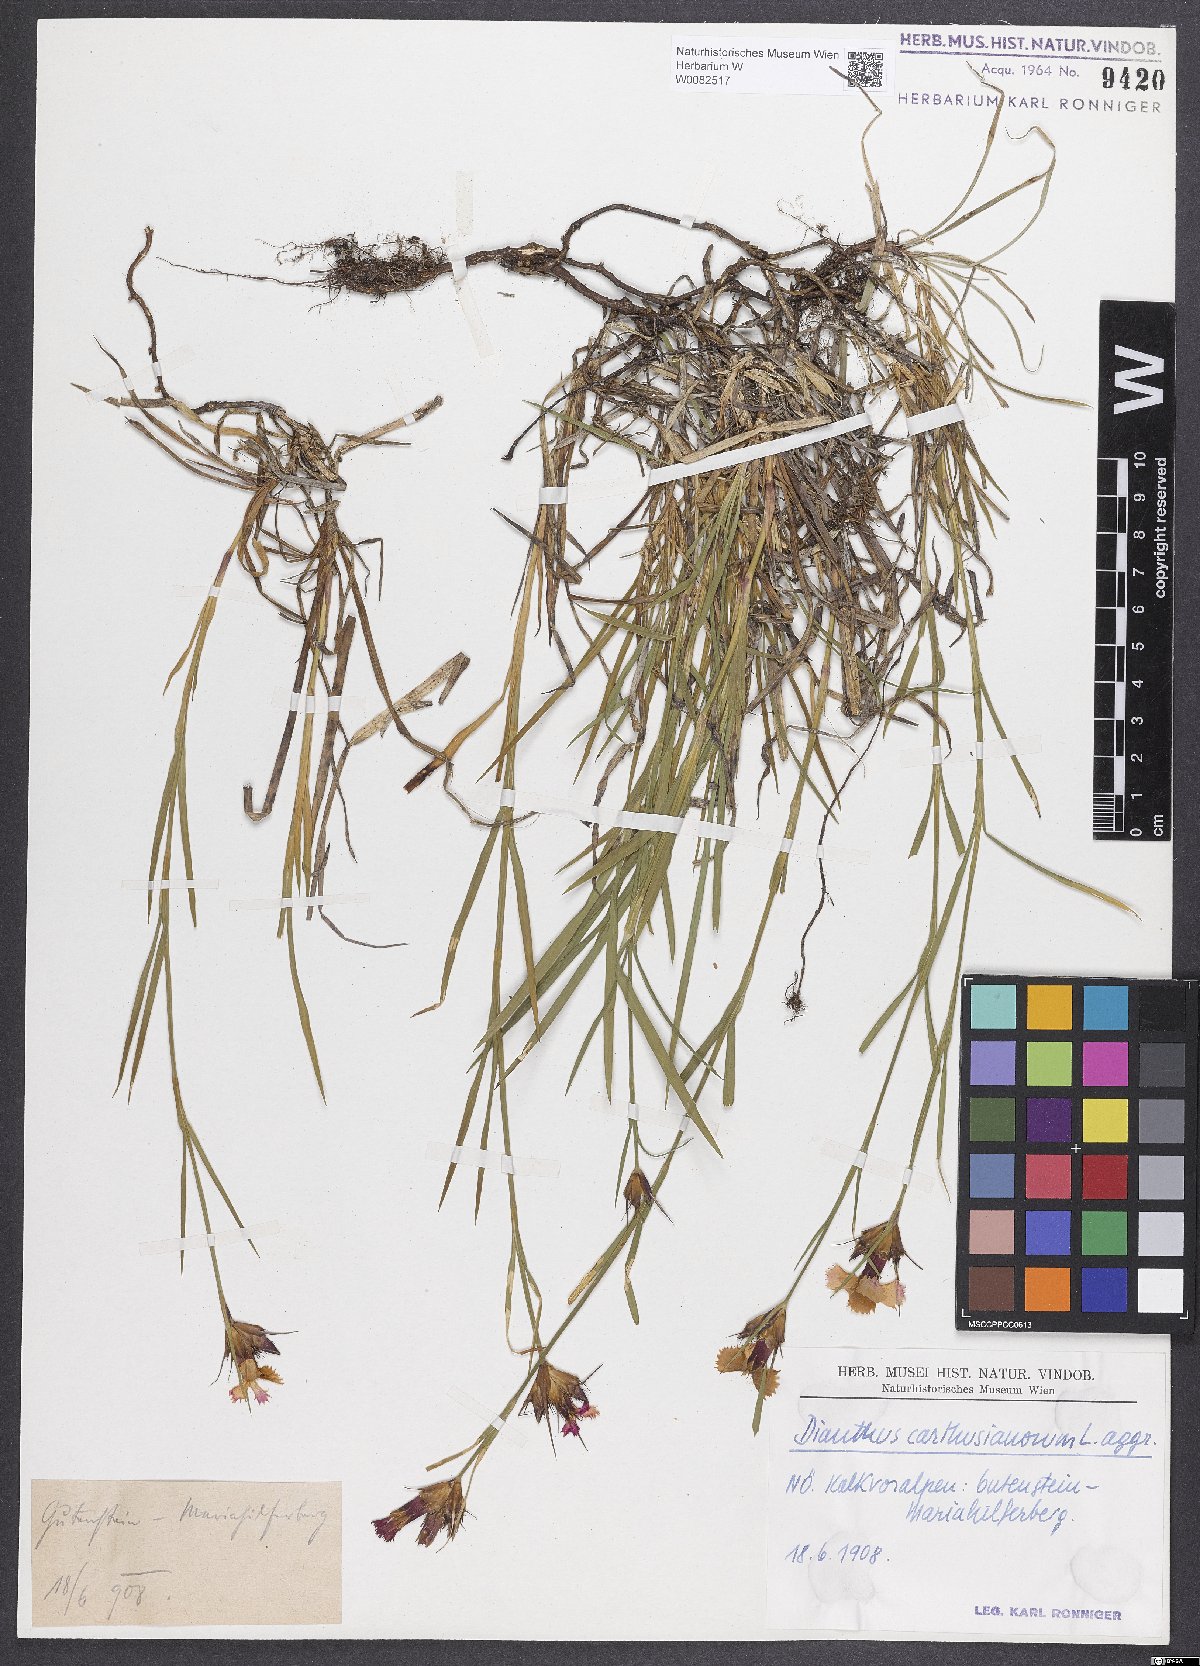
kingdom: Plantae
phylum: Tracheophyta
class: Magnoliopsida
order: Caryophyllales
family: Caryophyllaceae
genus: Dianthus
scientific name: Dianthus carthusianorum
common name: Carthusian pink
